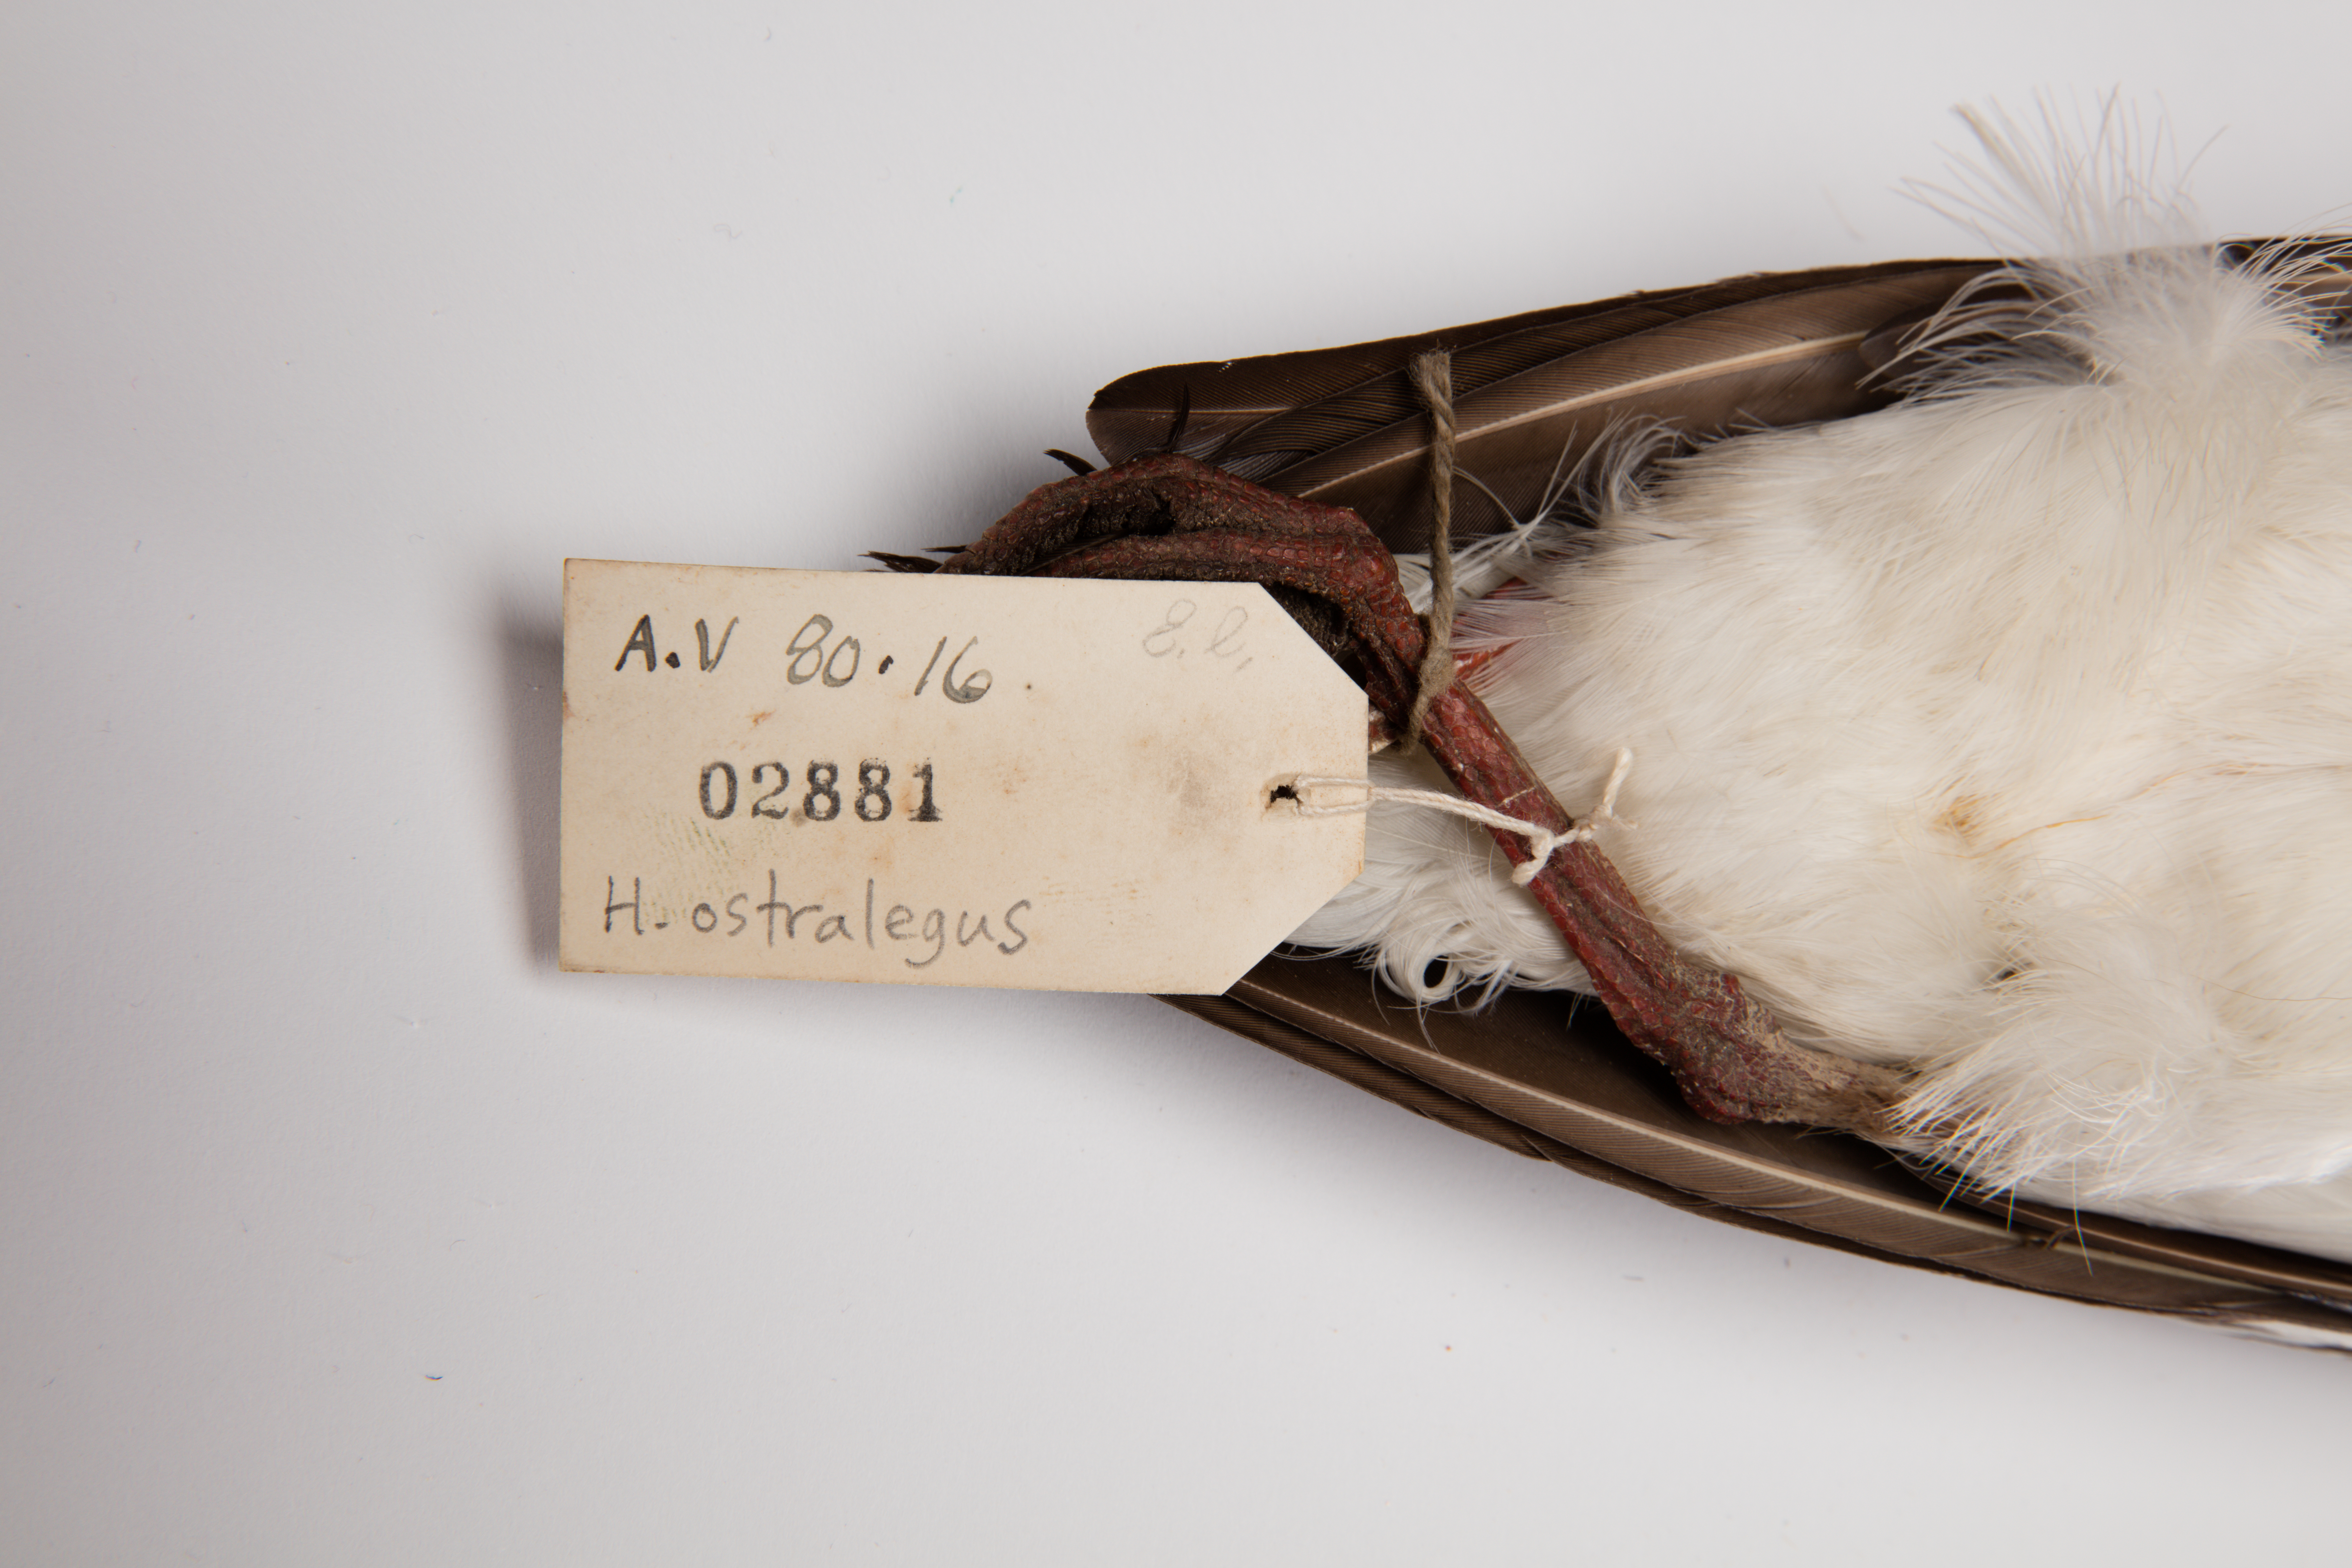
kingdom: Animalia
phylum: Chordata
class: Aves
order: Charadriiformes
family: Haematopodidae
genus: Haematopus
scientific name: Haematopus finschi
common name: South island oystercatcher
